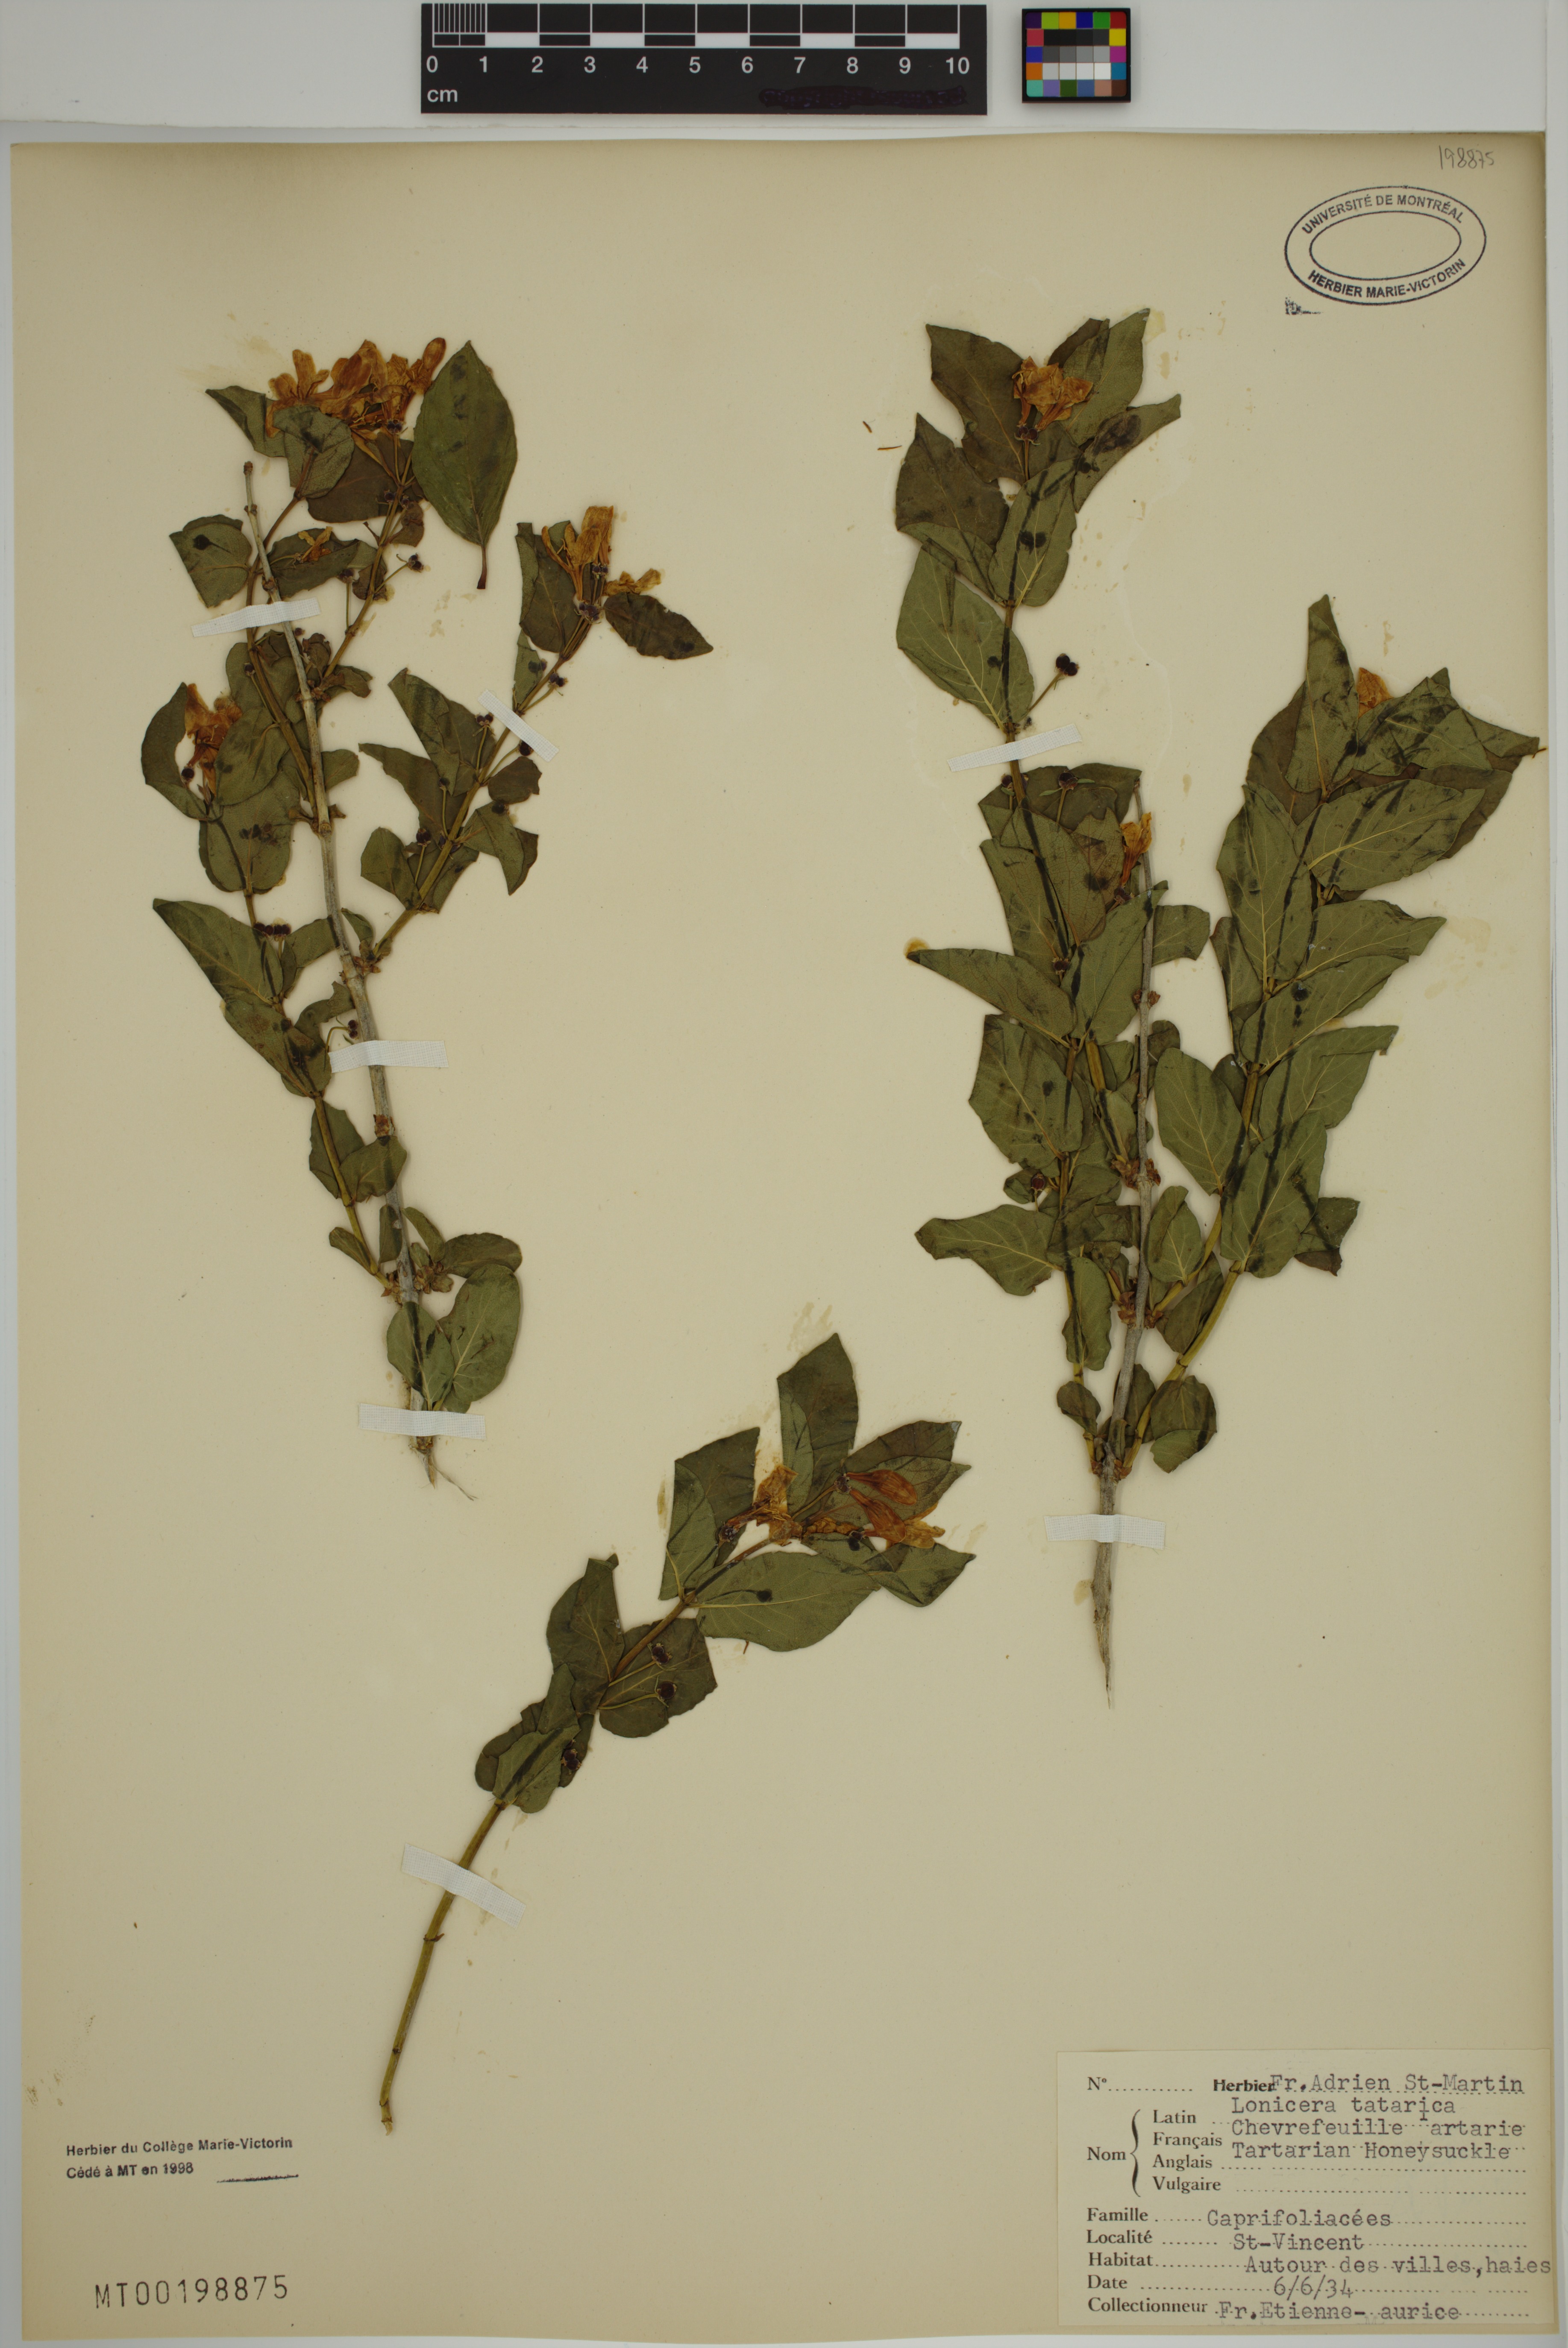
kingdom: Plantae
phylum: Tracheophyta
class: Magnoliopsida
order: Dipsacales
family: Caprifoliaceae
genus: Lonicera
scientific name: Lonicera tatarica
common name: Tatarian honeysuckle
